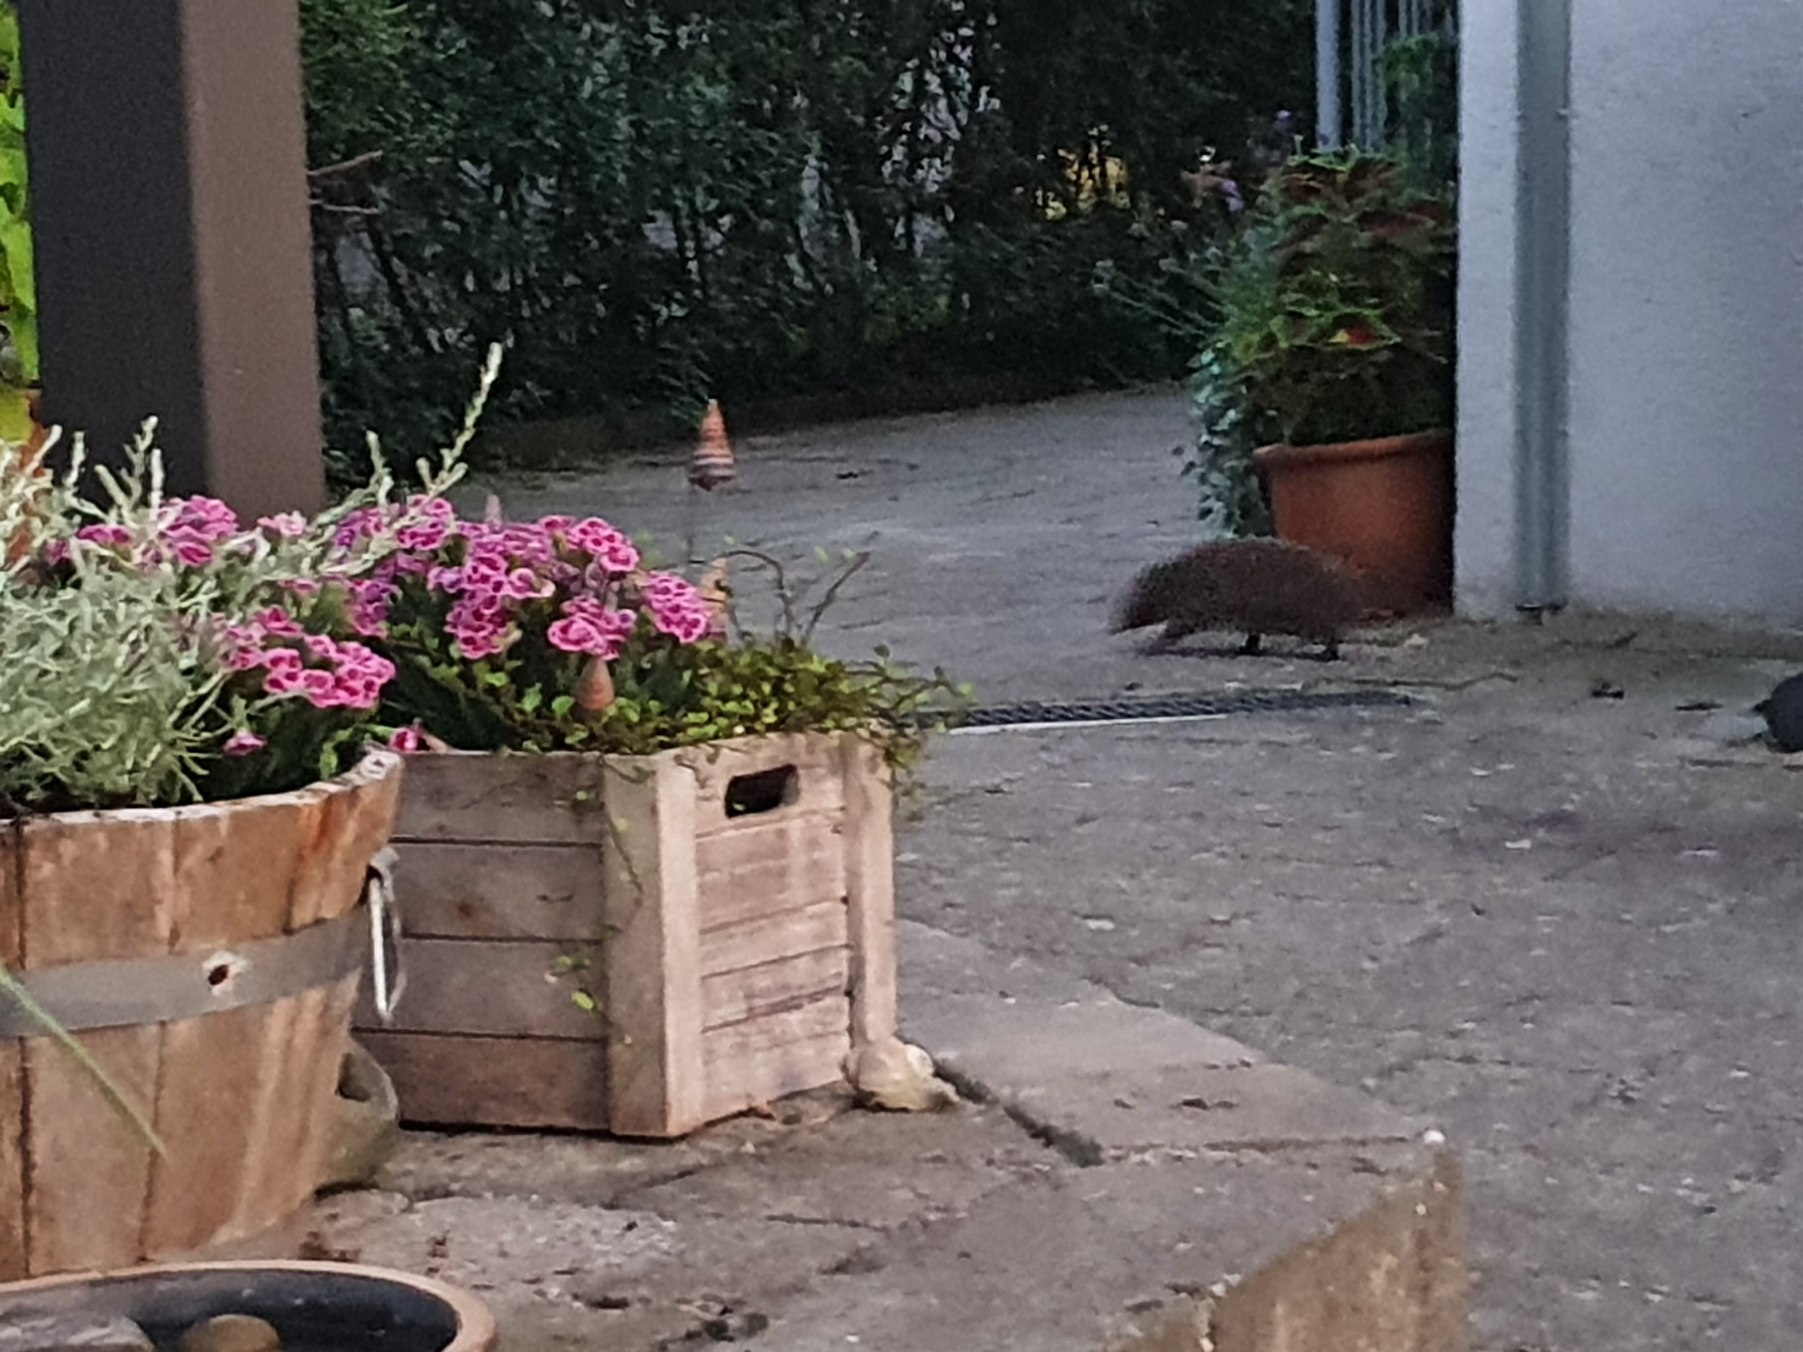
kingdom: Animalia
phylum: Chordata
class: Mammalia
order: Erinaceomorpha
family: Erinaceidae
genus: Erinaceus
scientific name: Erinaceus europaeus
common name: Pindsvin
